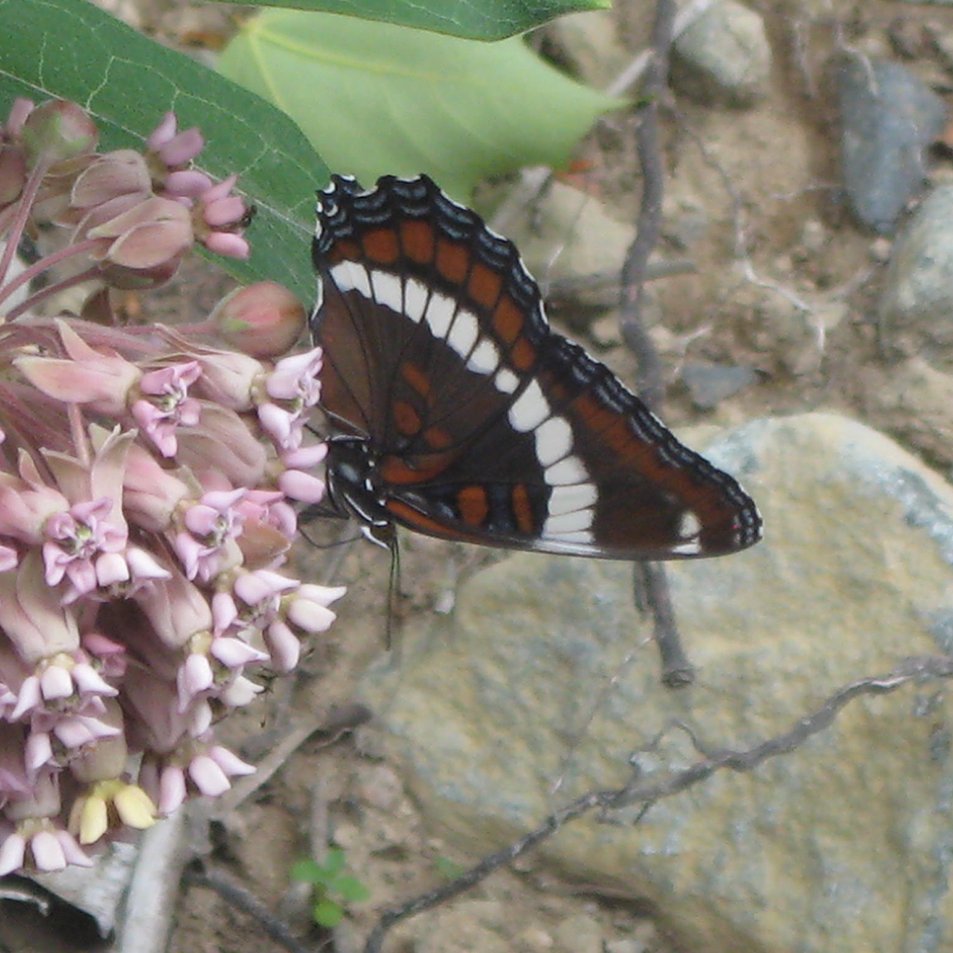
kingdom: Animalia
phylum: Arthropoda
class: Insecta
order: Lepidoptera
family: Nymphalidae
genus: Limenitis
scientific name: Limenitis arthemis
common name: Red-spotted Admiral
